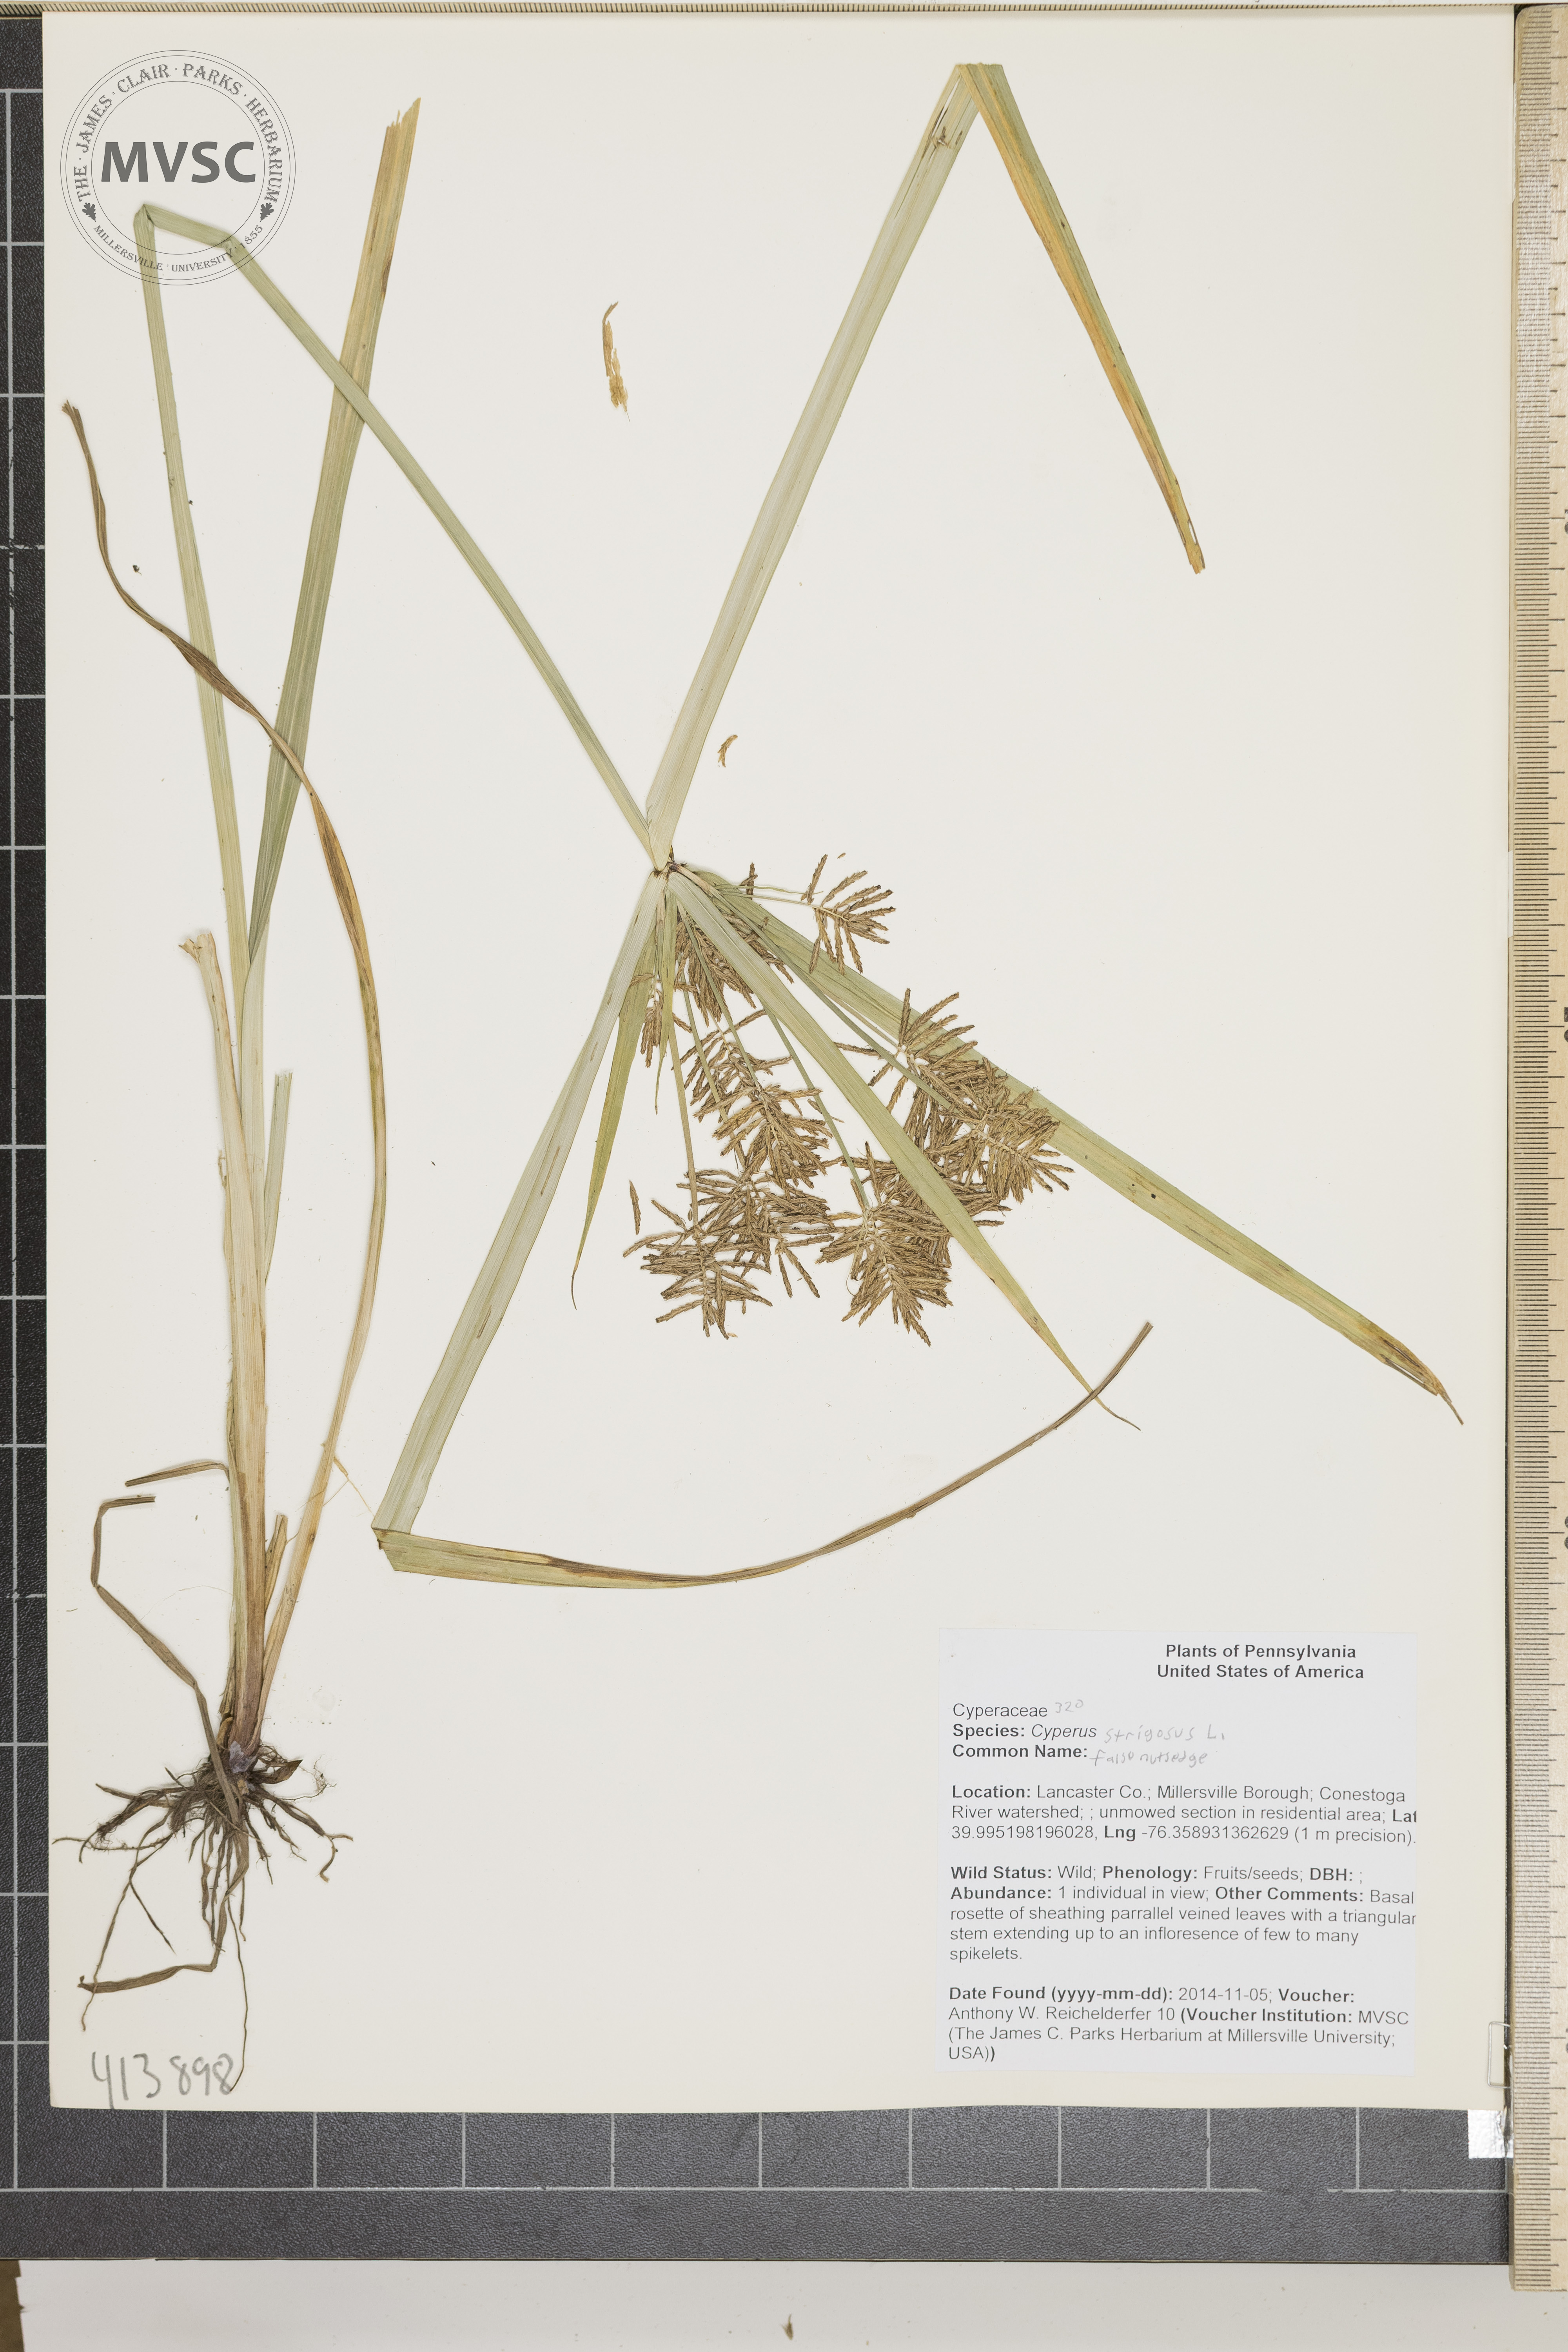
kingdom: Plantae
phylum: Tracheophyta
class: Liliopsida
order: Poales
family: Cyperaceae
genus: Cyperus
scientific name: Cyperus strigosus
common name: Sedge
